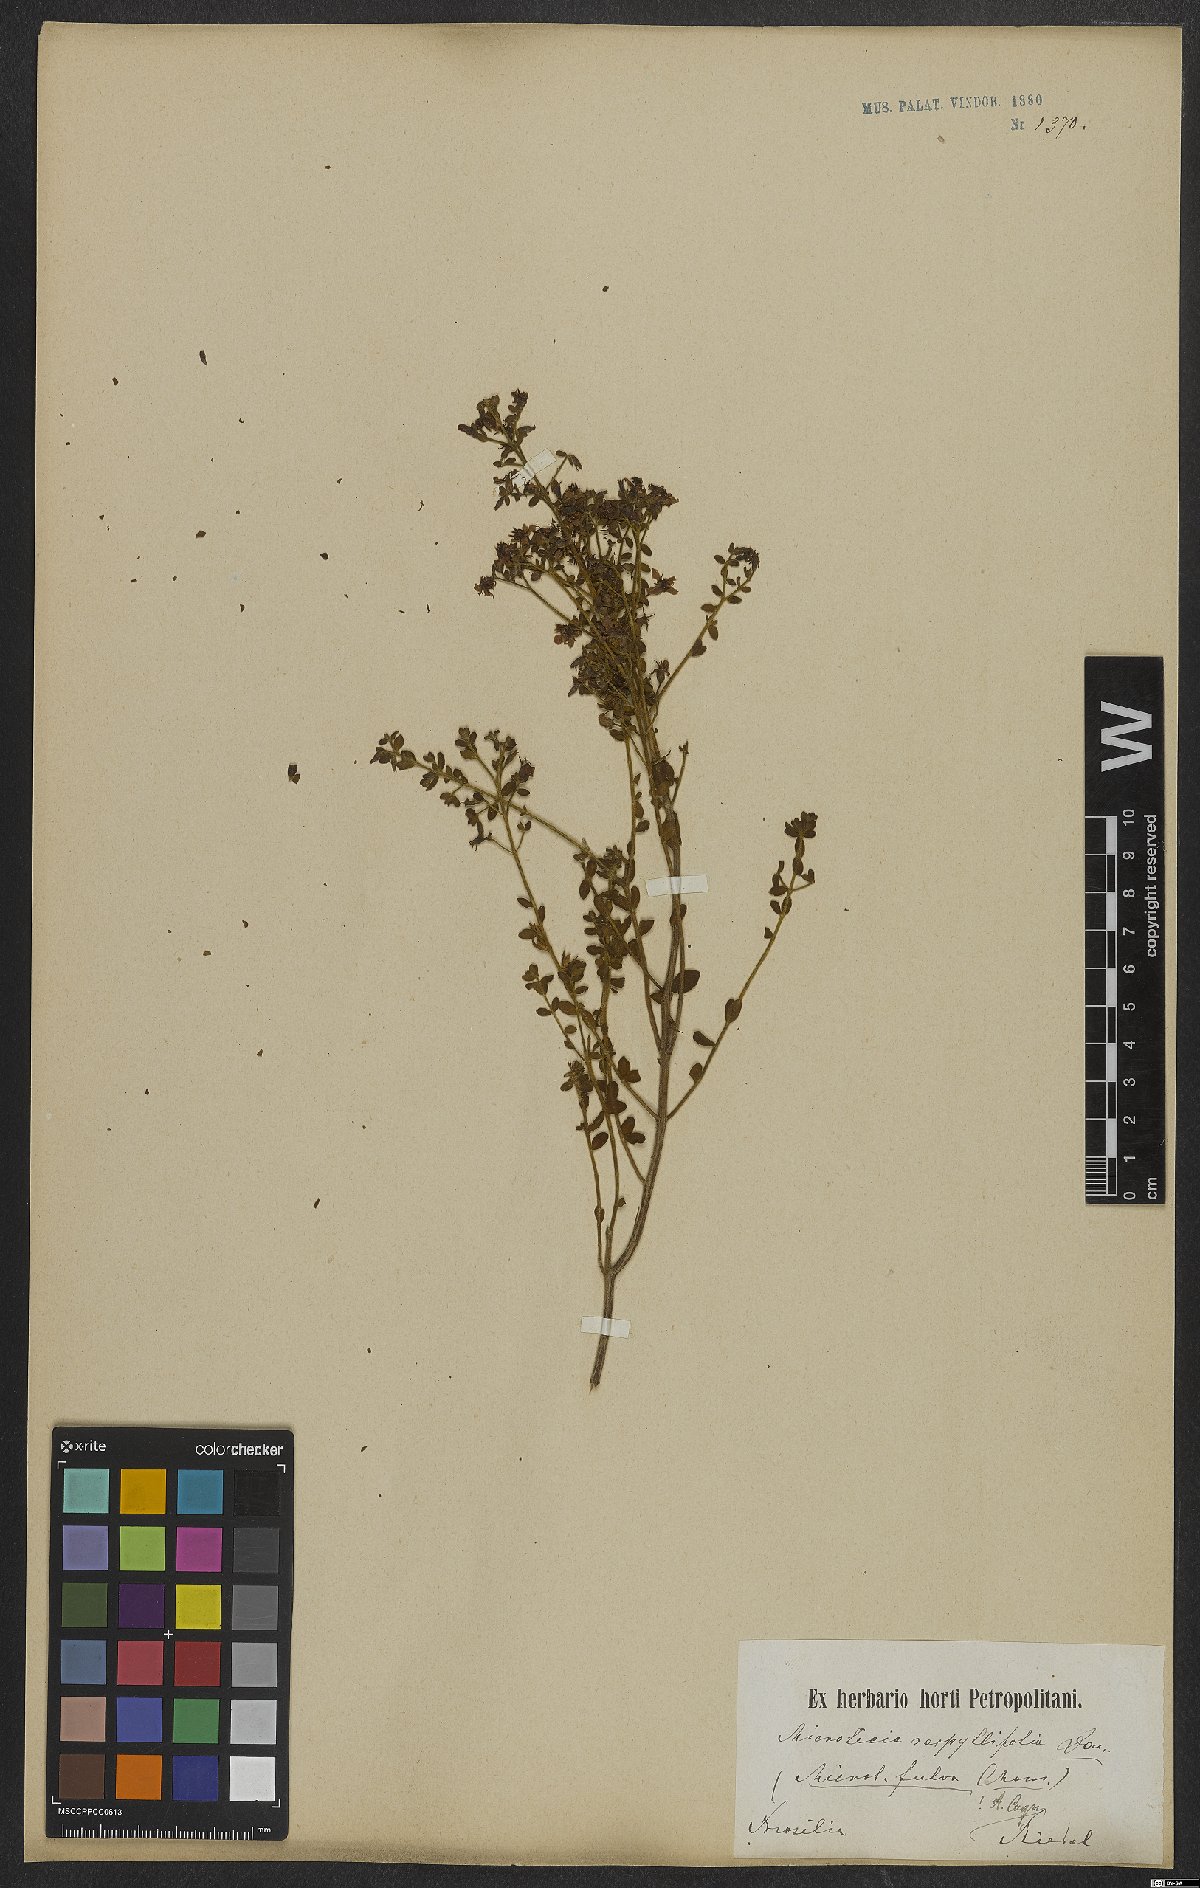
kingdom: Plantae
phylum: Tracheophyta
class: Magnoliopsida
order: Myrtales
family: Melastomataceae
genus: Microlicia
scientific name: Microlicia fulva
